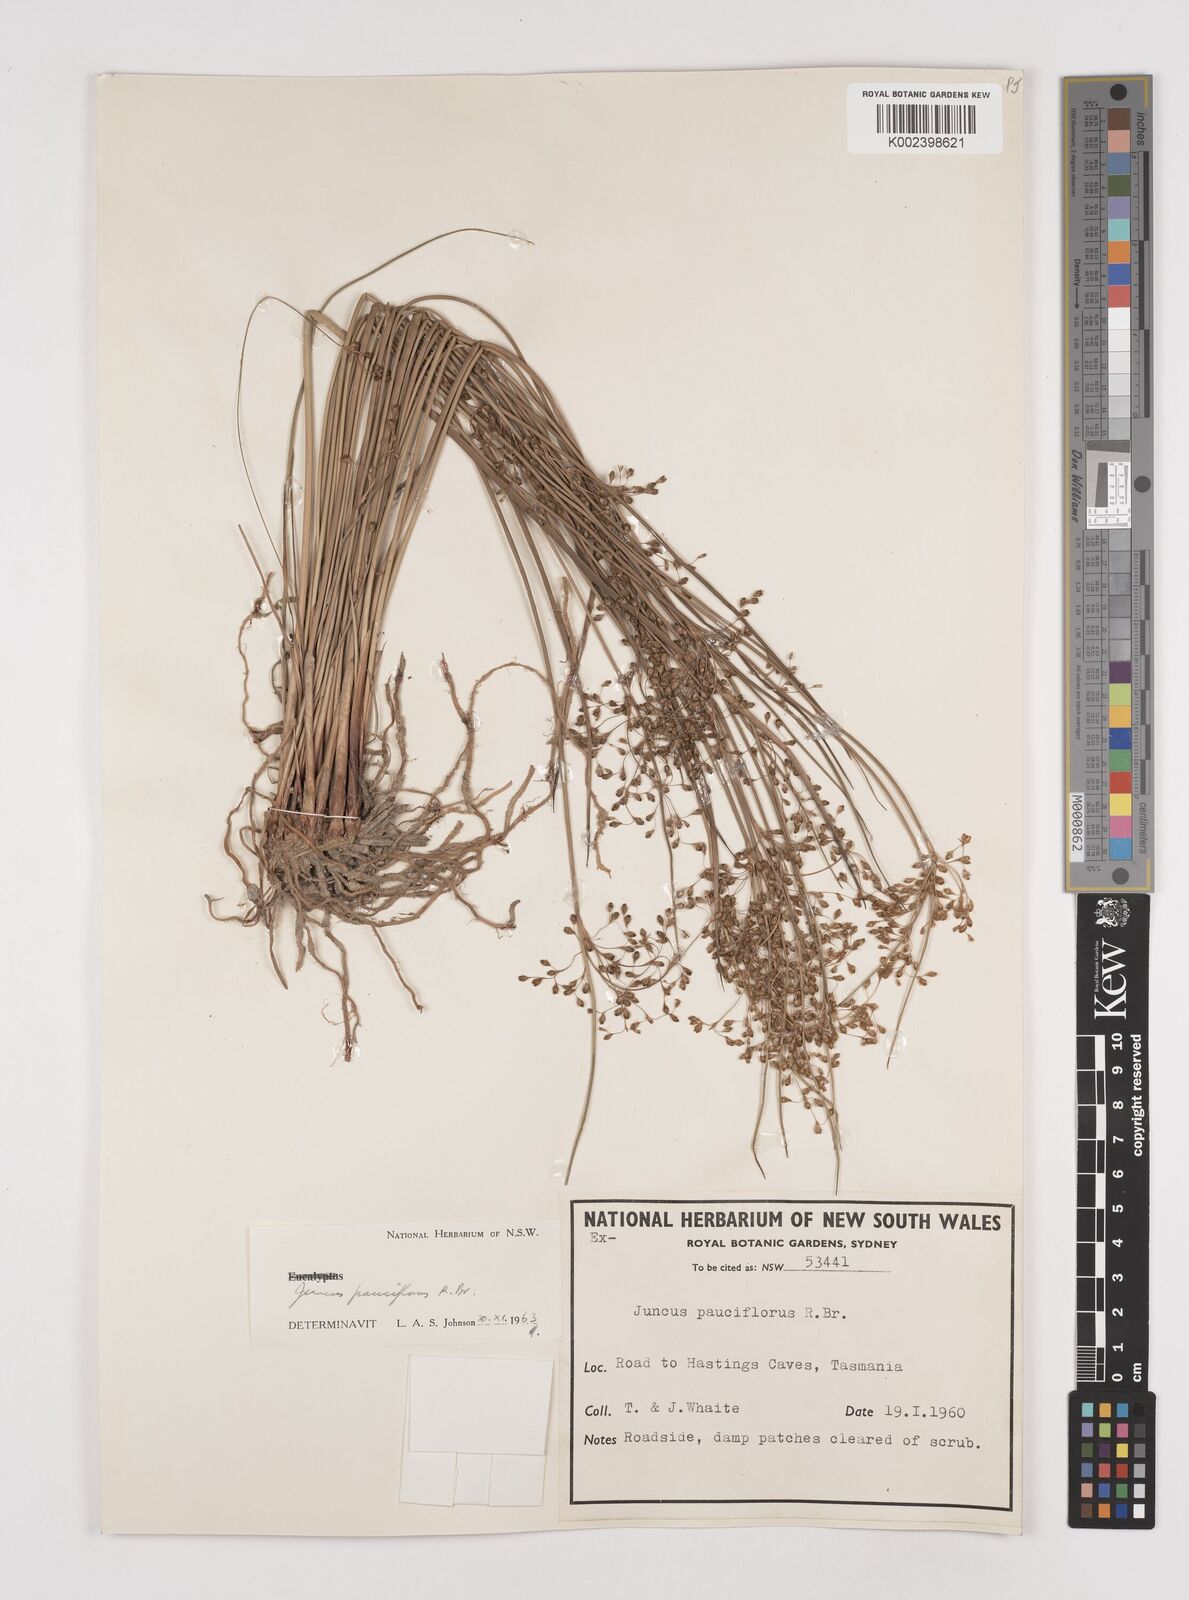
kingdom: Plantae
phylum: Tracheophyta
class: Liliopsida
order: Poales
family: Juncaceae
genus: Juncus
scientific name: Juncus pauciflorus
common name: Loose-flowered rush
